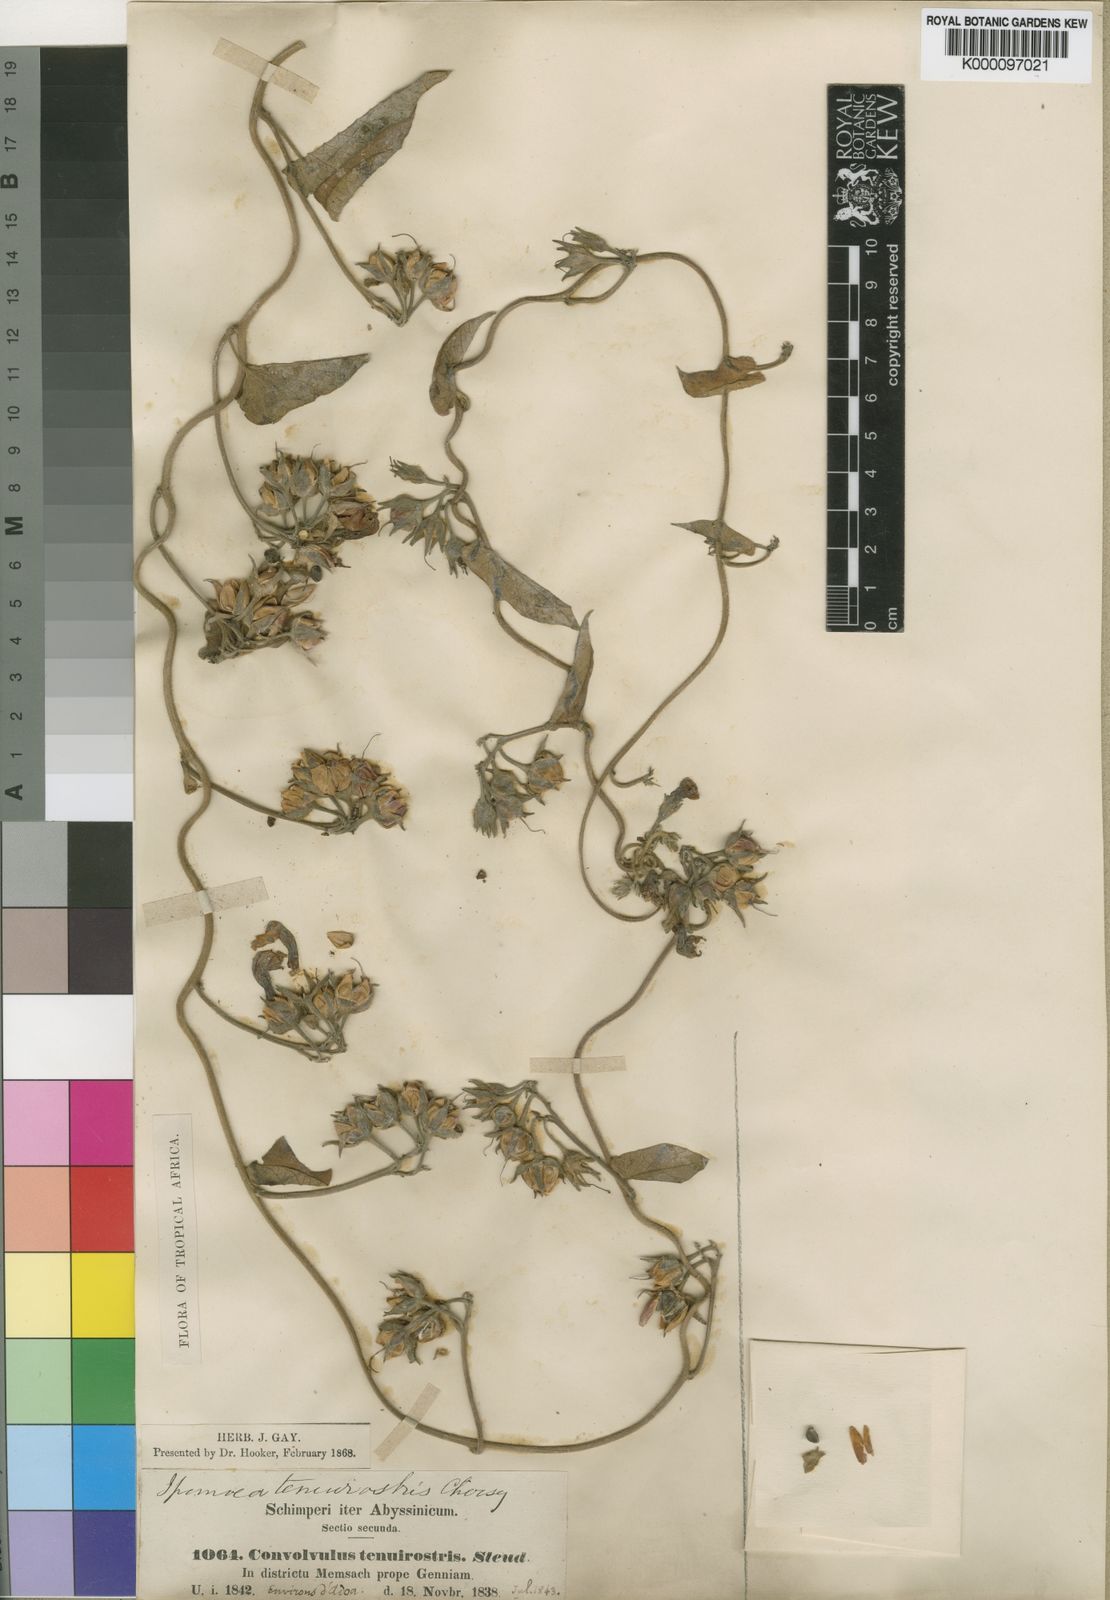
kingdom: Plantae
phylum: Tracheophyta
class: Magnoliopsida
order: Solanales
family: Convolvulaceae
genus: Ipomoea
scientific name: Ipomoea tenuirostris
